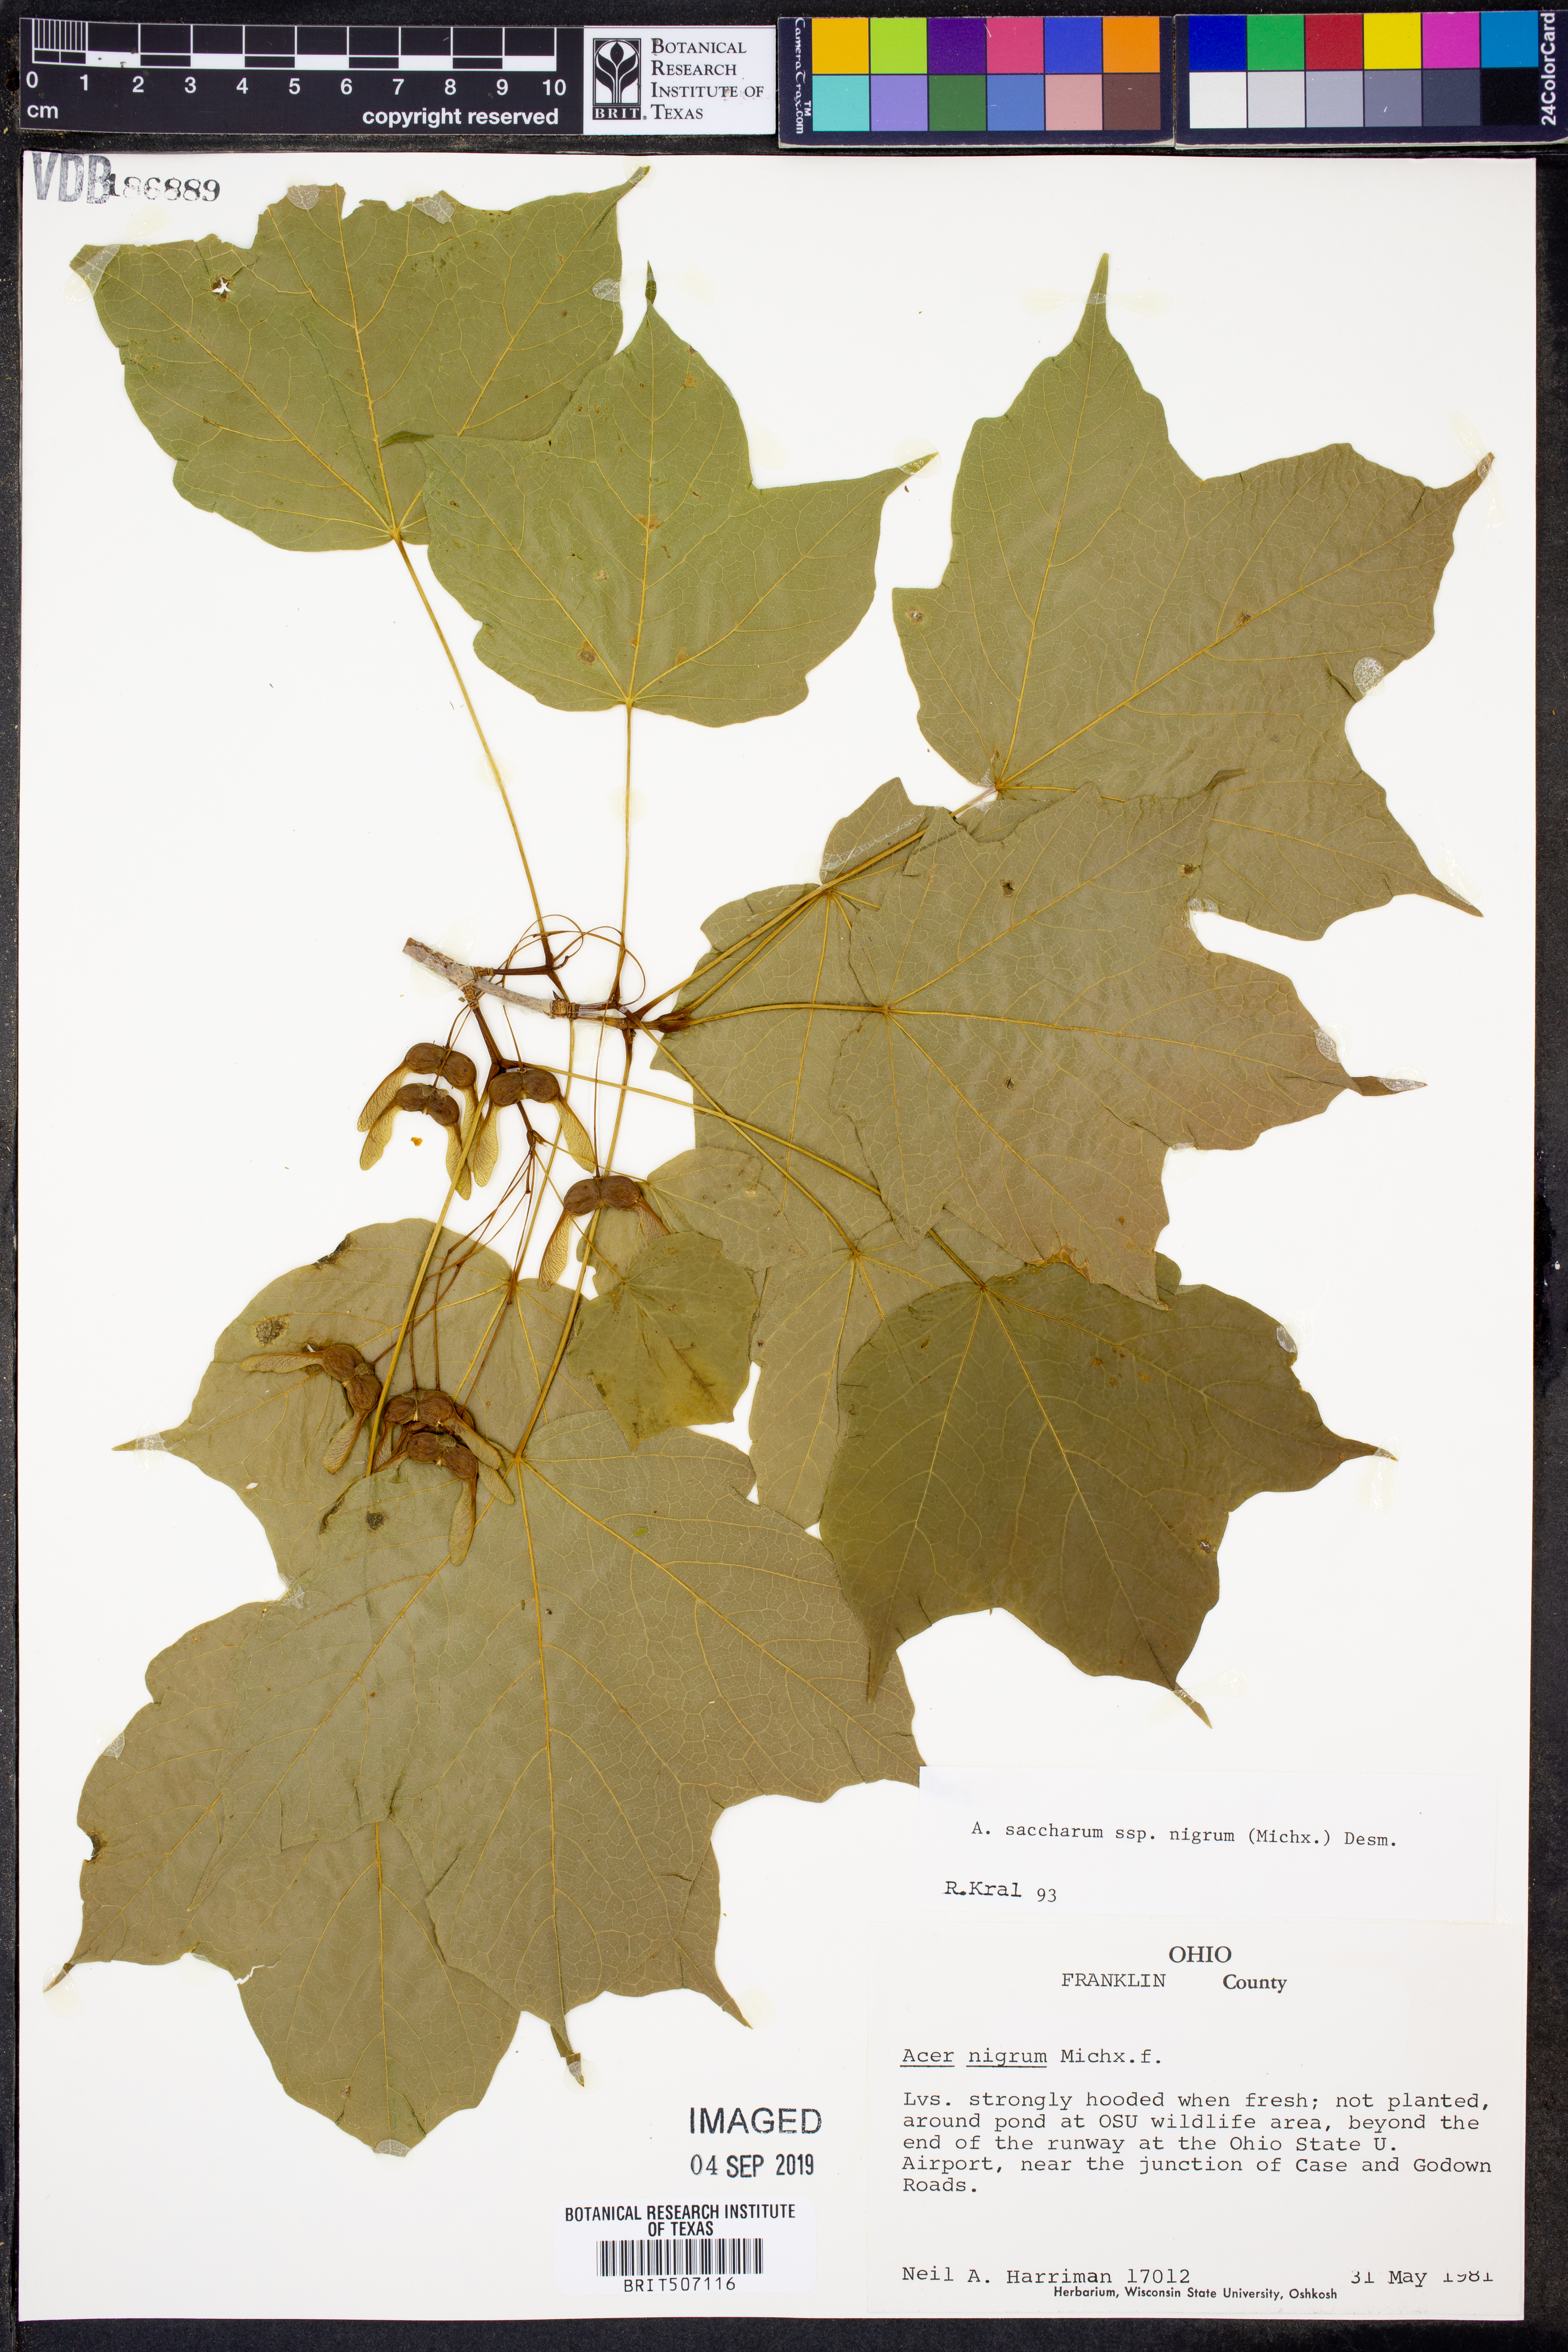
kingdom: Plantae
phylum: Tracheophyta
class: Magnoliopsida
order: Sapindales
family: Sapindaceae
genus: Acer
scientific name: Acer nigrum
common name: Black maple
